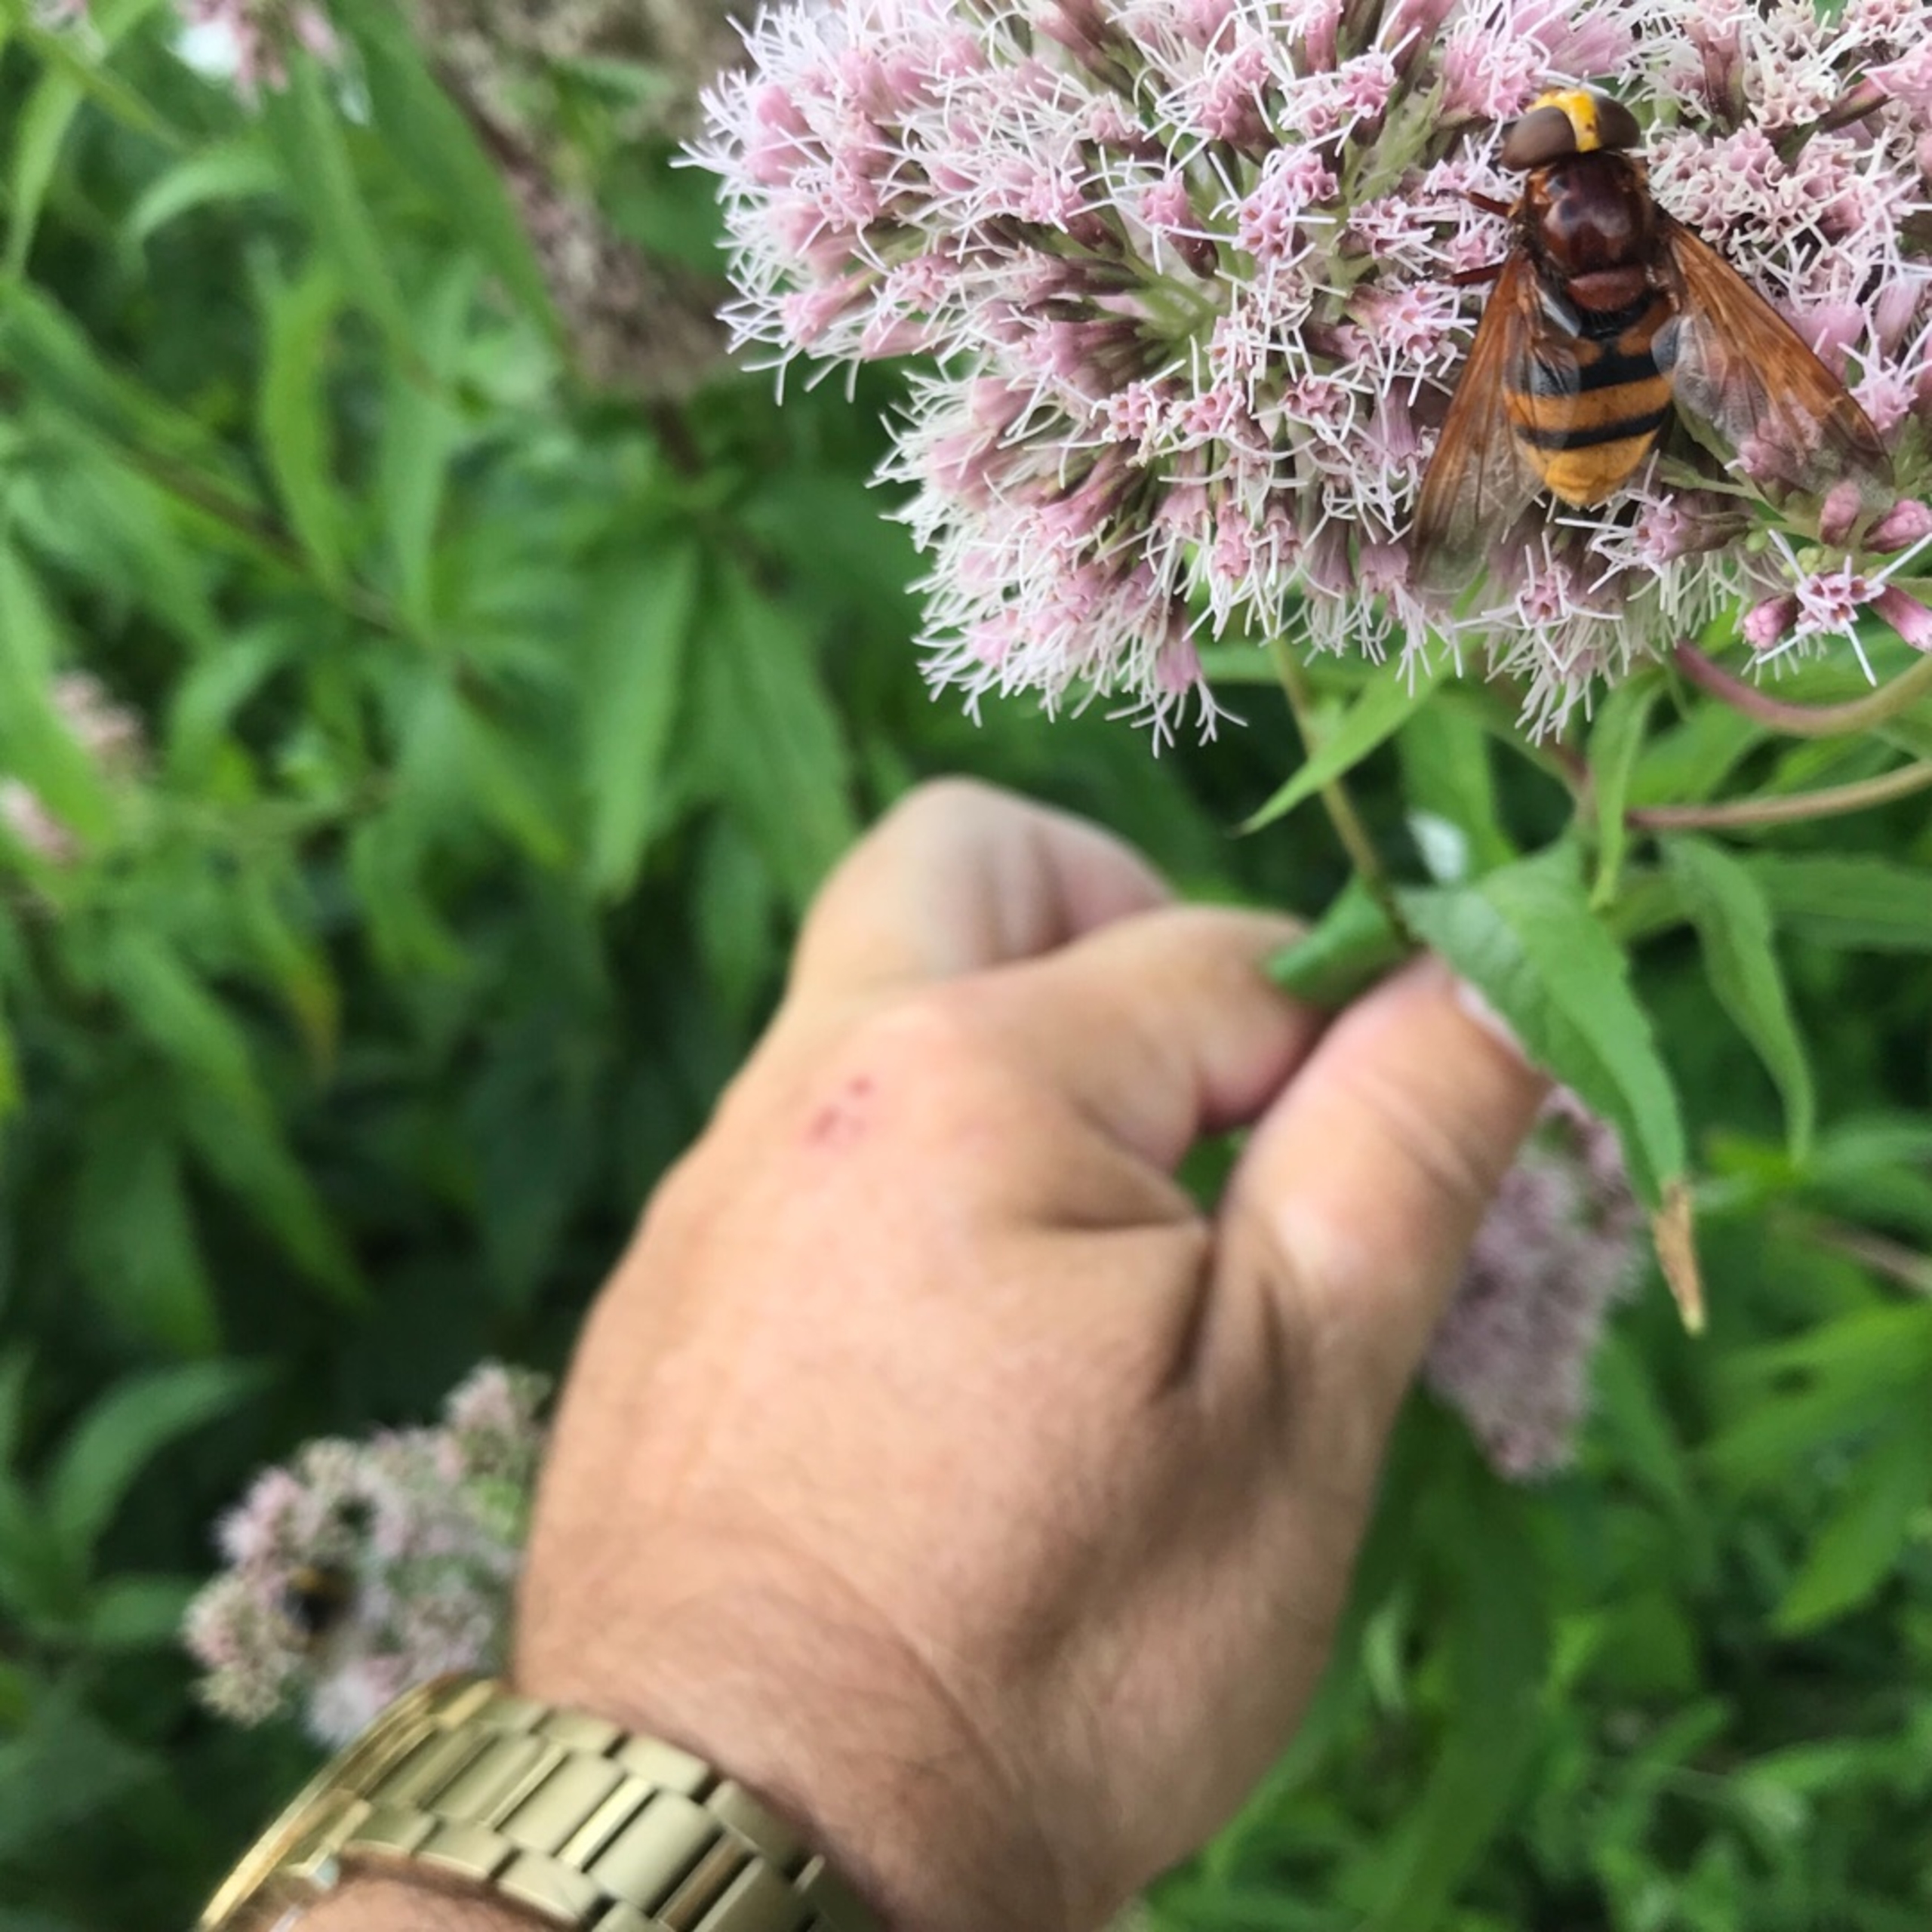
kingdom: Animalia
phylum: Arthropoda
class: Insecta
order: Diptera
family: Syrphidae
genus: Volucella
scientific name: Volucella zonaria
